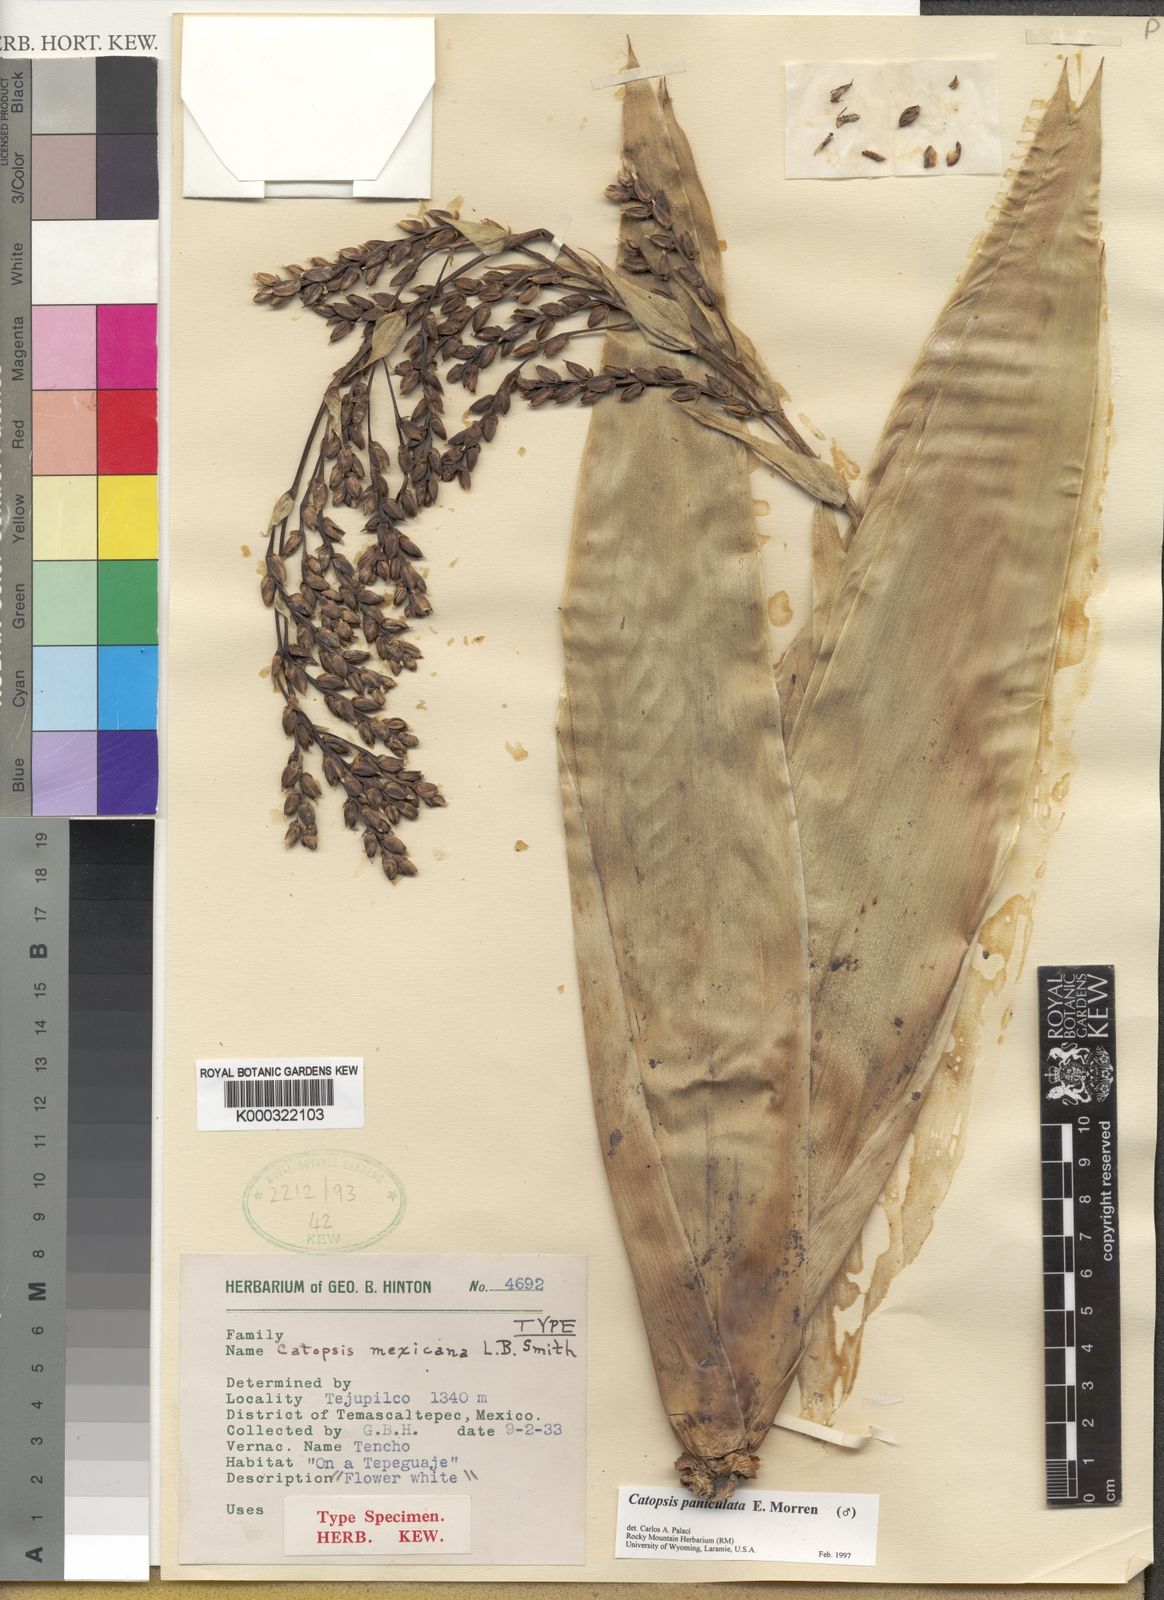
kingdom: Plantae
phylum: Tracheophyta
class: Liliopsida
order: Poales
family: Bromeliaceae
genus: Catopsis
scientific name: Catopsis paniculata
